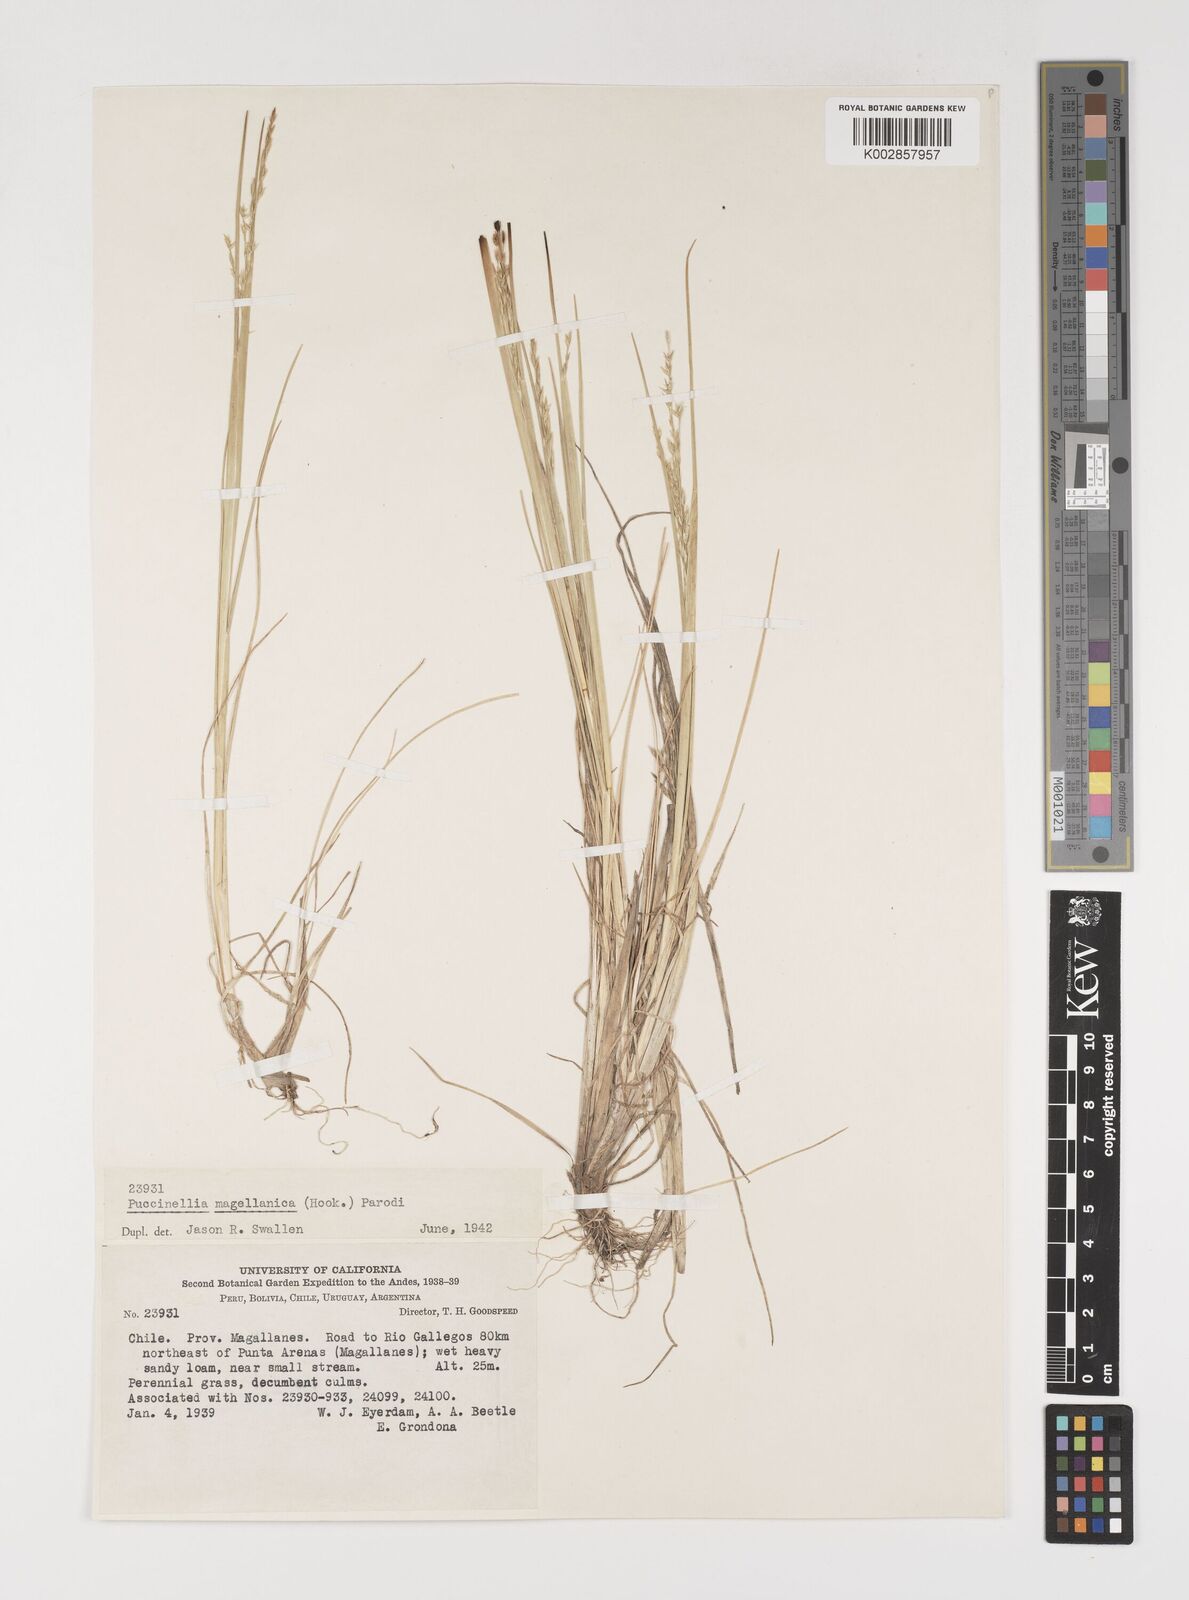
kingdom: Plantae
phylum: Tracheophyta
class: Liliopsida
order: Poales
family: Poaceae
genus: Puccinellia
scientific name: Puccinellia magellanica
